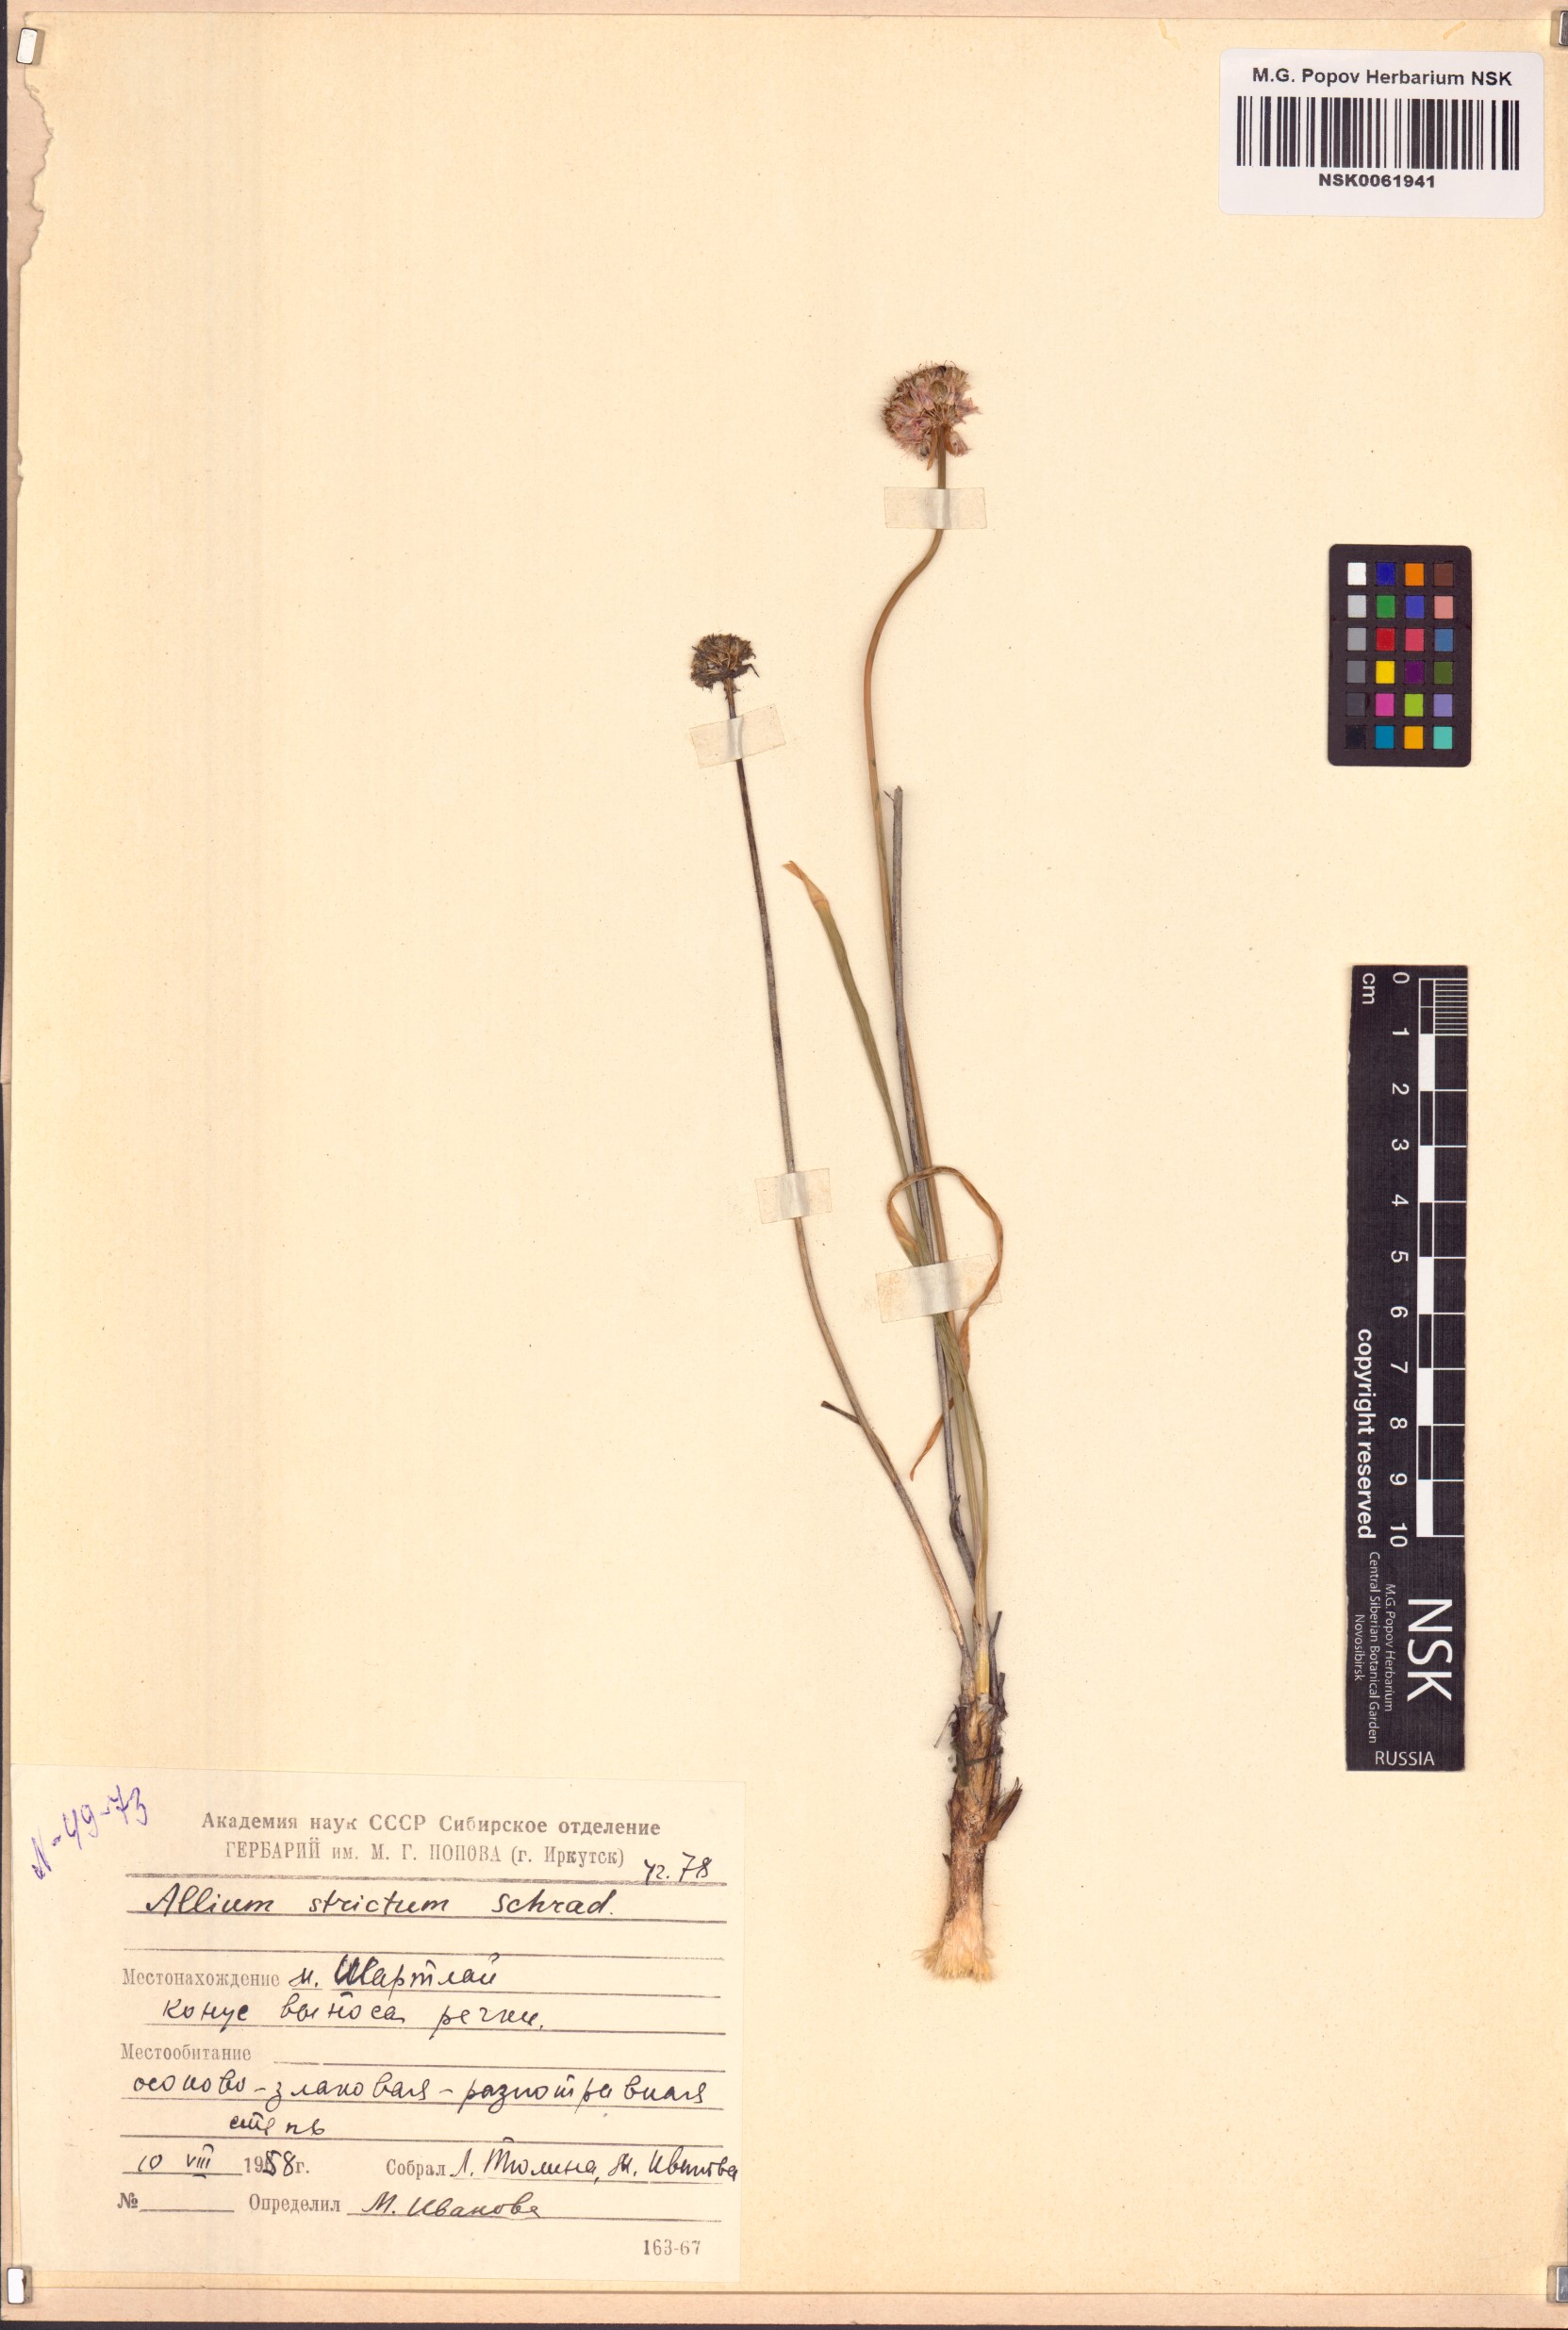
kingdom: Plantae
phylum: Tracheophyta
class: Liliopsida
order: Asparagales
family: Amaryllidaceae
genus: Allium
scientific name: Allium strictum
